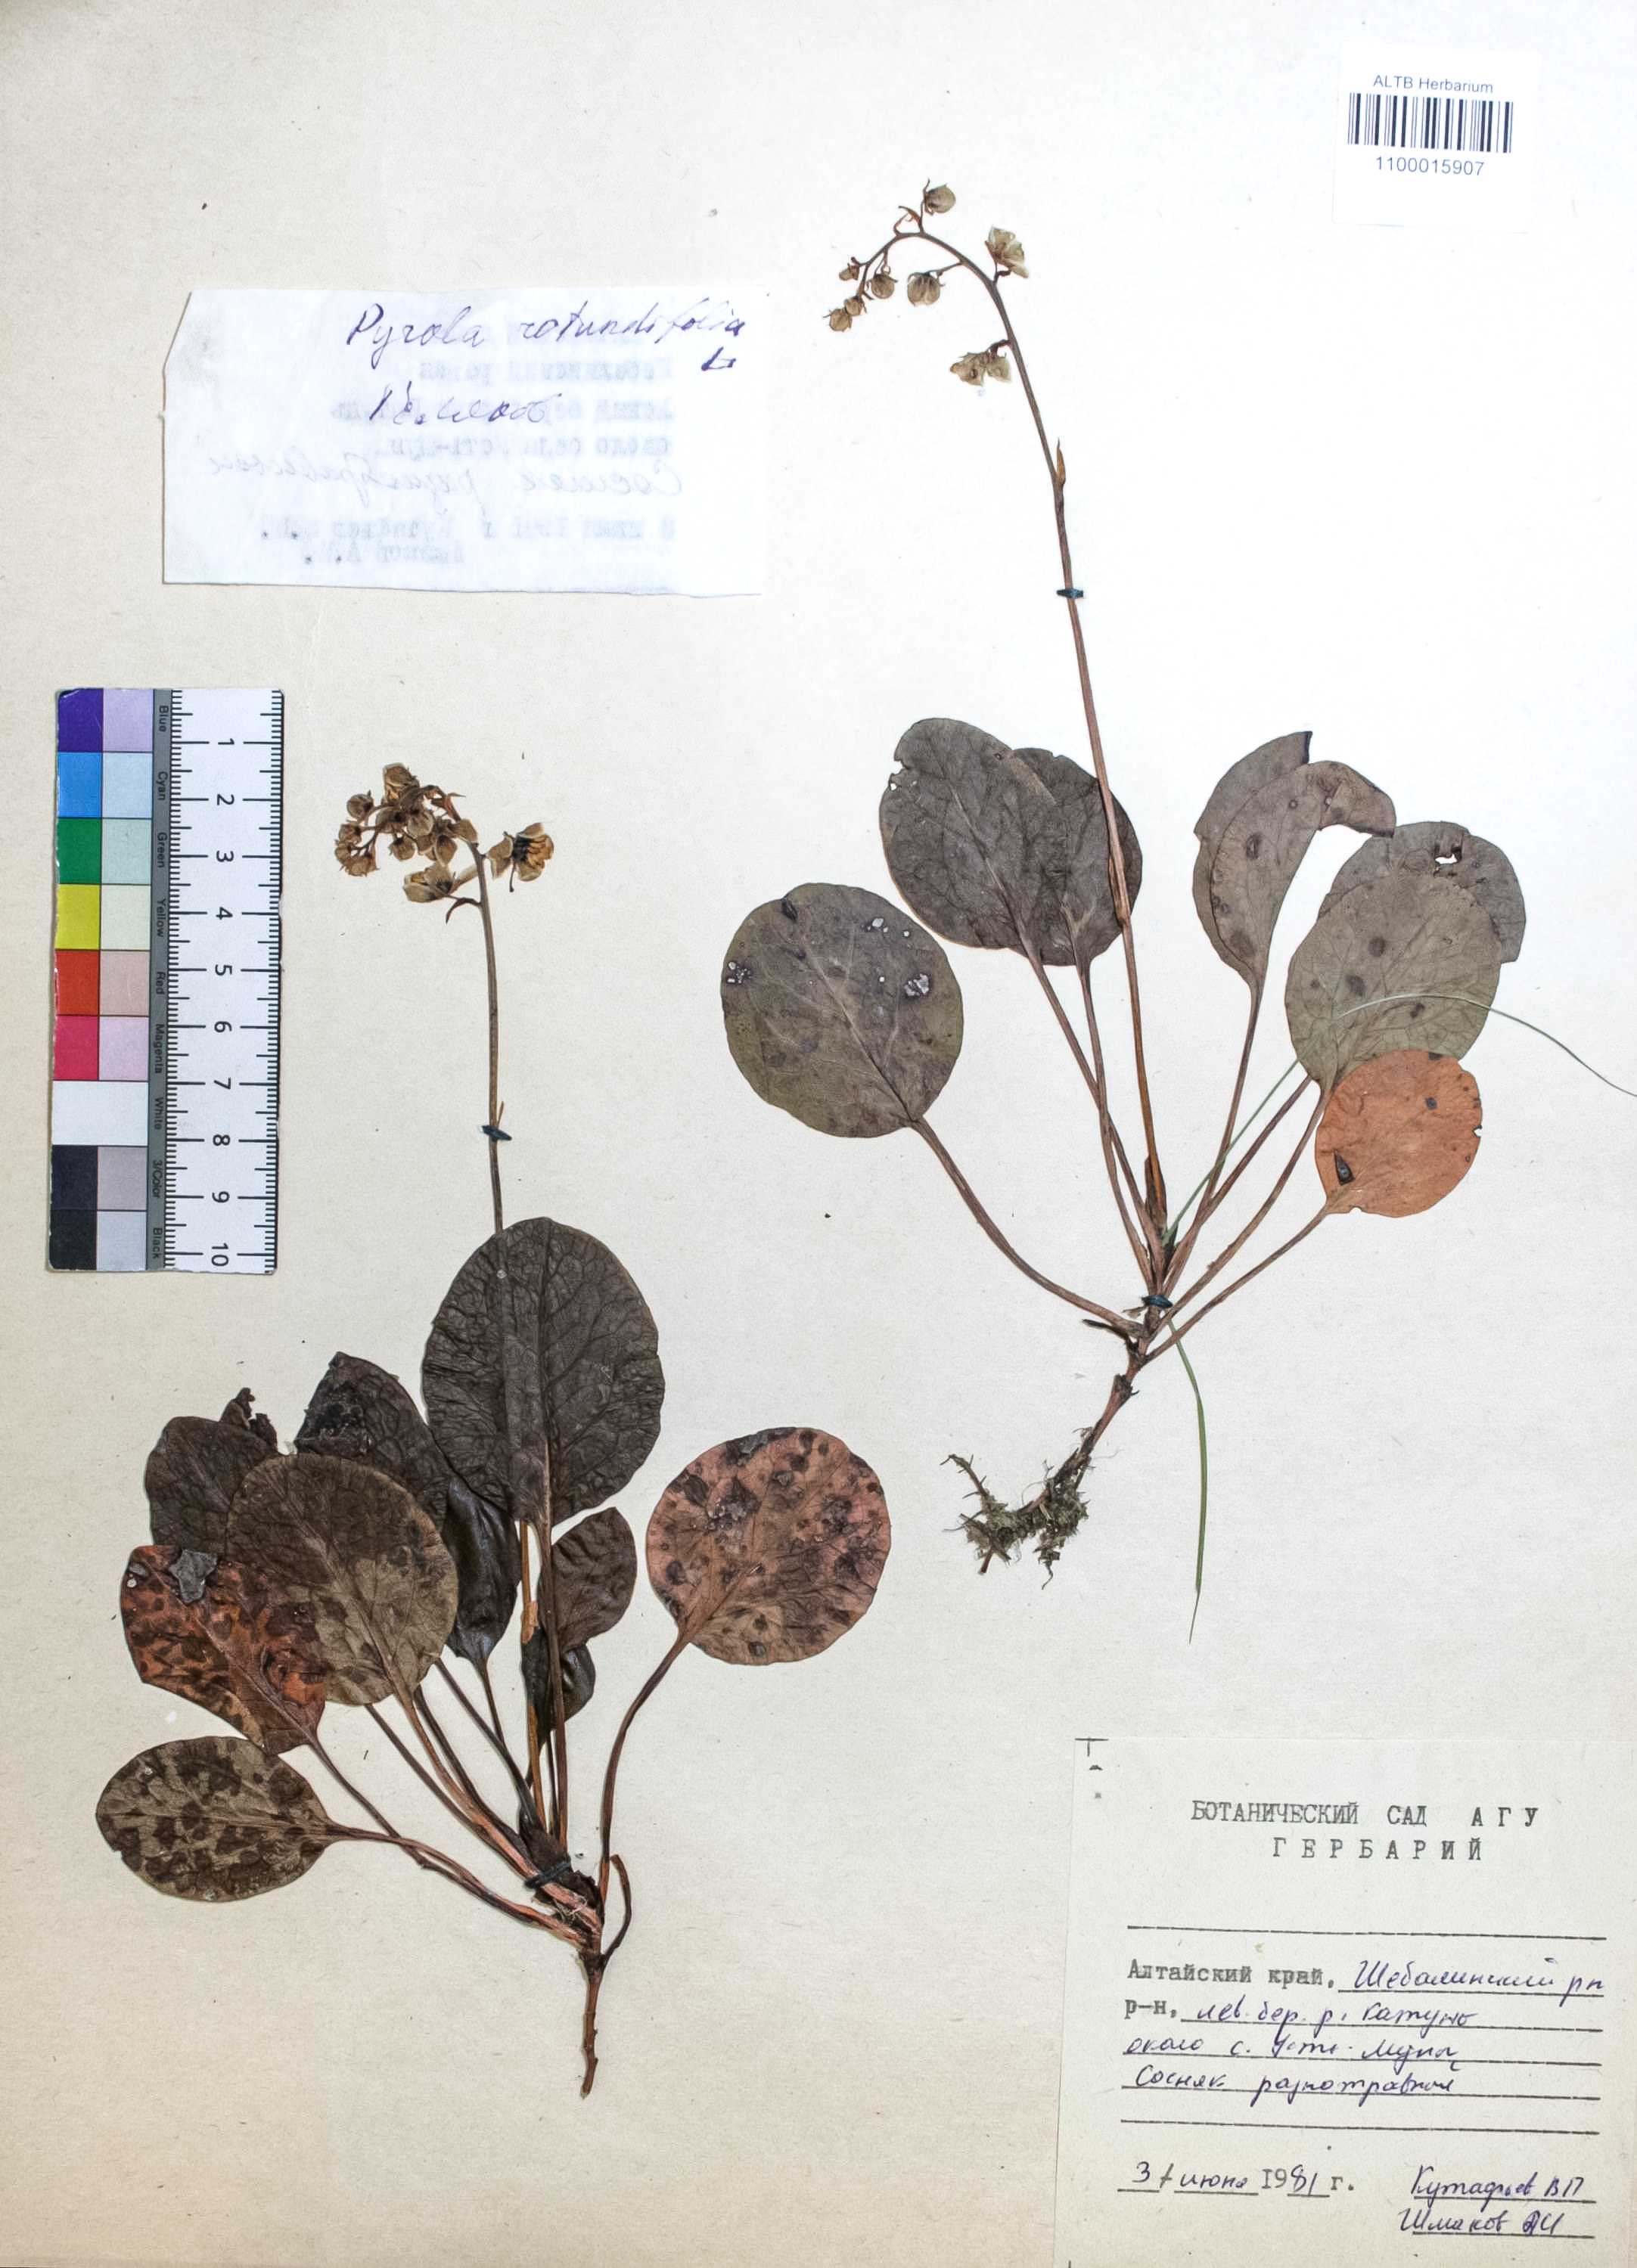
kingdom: Plantae
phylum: Tracheophyta
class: Magnoliopsida
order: Ericales
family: Ericaceae
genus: Pyrola
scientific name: Pyrola rotundifolia
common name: Round-leaved wintergreen
